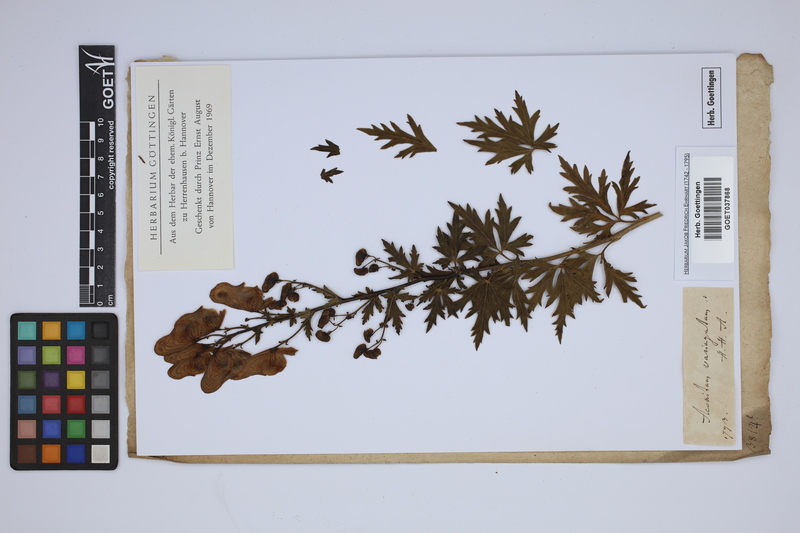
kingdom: Plantae
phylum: Tracheophyta
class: Magnoliopsida
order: Ranunculales
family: Ranunculaceae
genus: Aconitum
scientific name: Aconitum variegatum
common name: Manchurian monkshood
